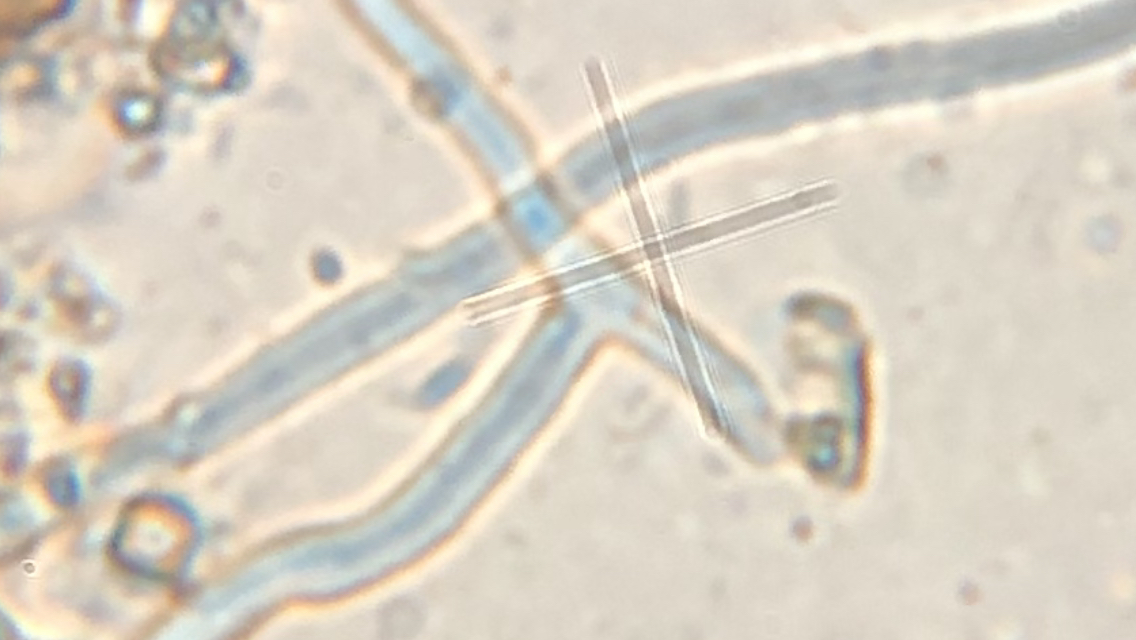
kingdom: Fungi
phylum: Basidiomycota
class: Agaricomycetes
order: Polyporales
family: Fomitopsidaceae
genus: Brunneoporus
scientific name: Brunneoporus kuzyanus
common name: brunlig sejporesvamp
